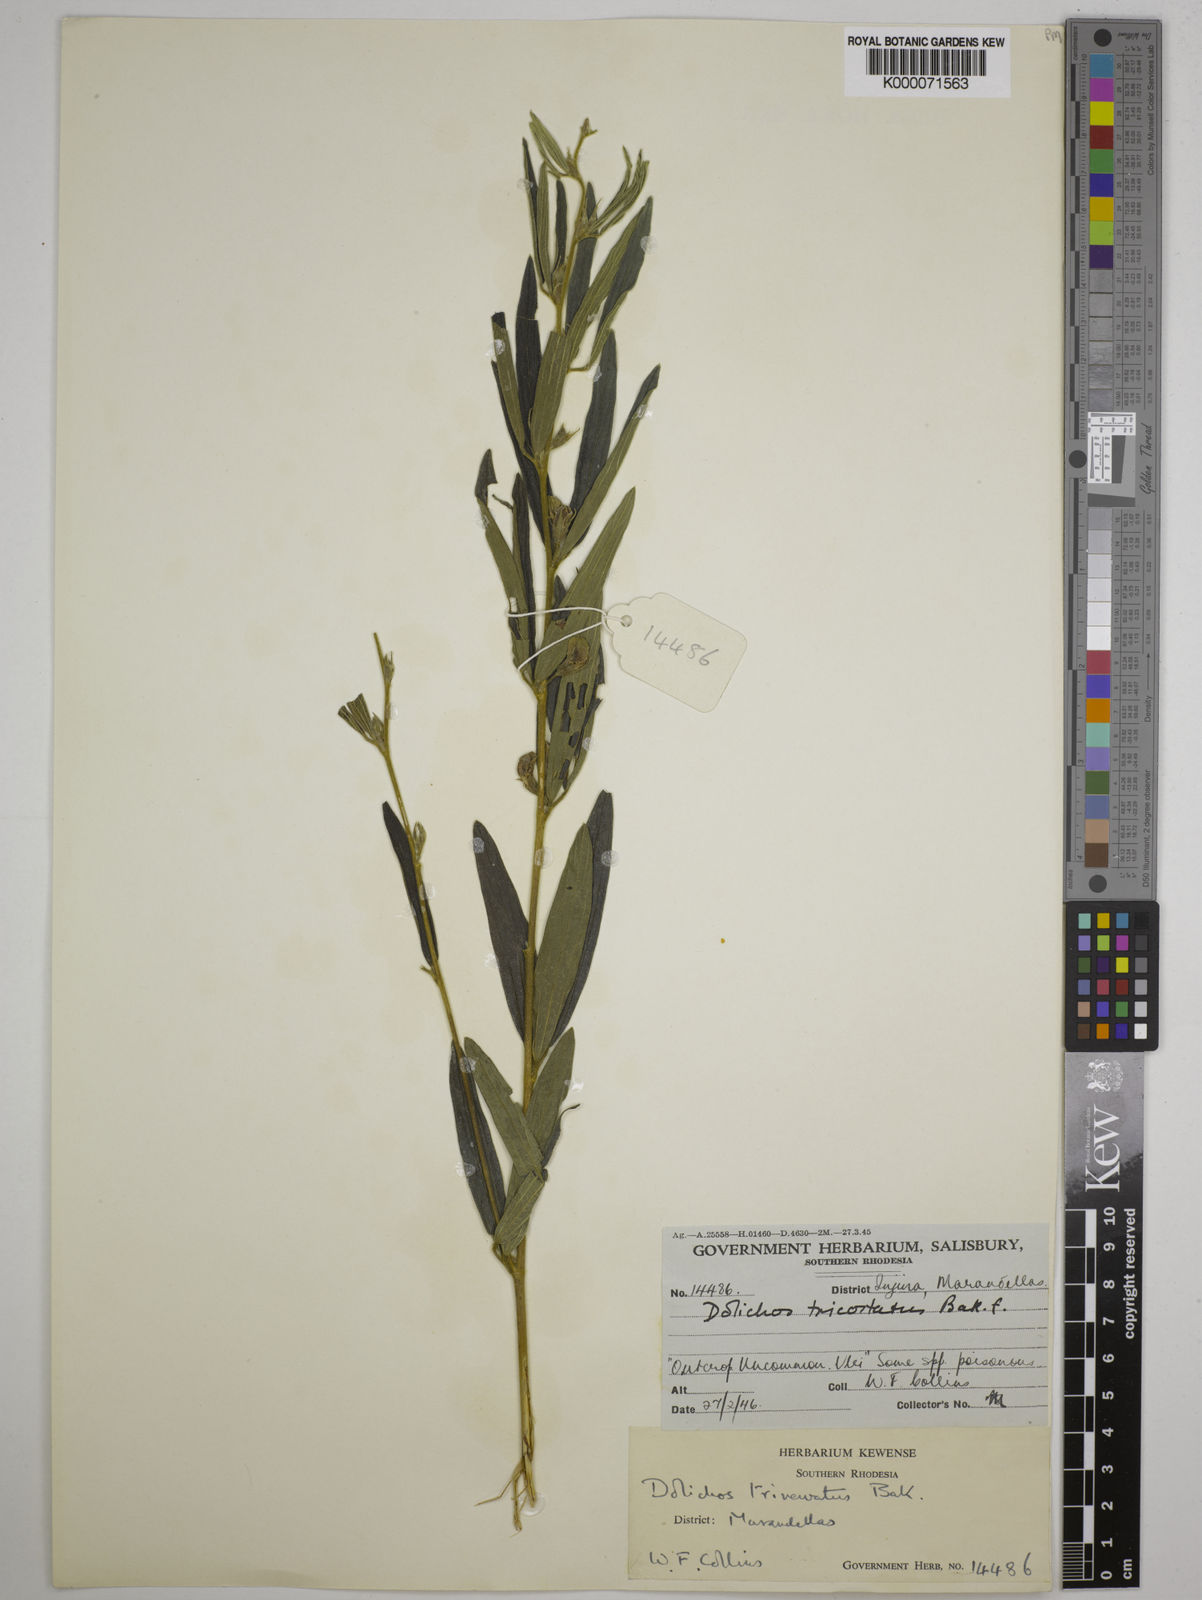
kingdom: Plantae
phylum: Tracheophyta
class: Magnoliopsida
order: Fabales
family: Fabaceae
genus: Dolichos
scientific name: Dolichos trinervatus
